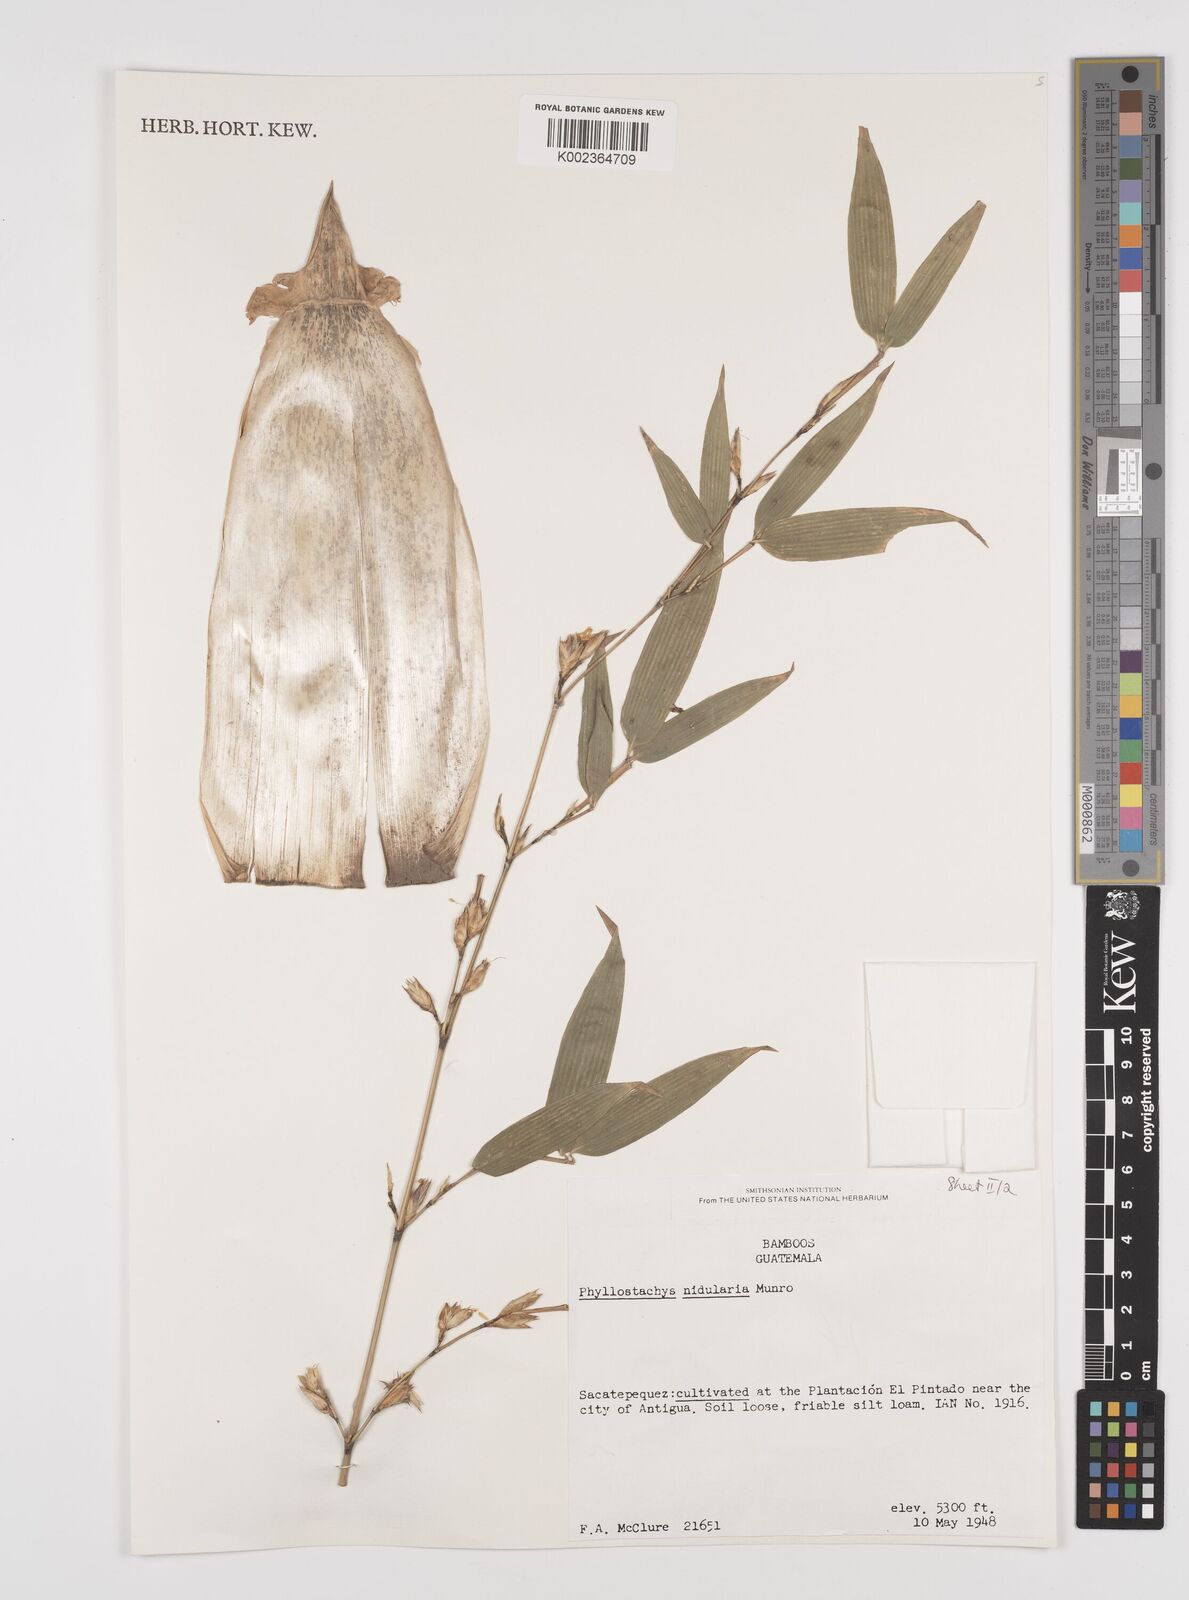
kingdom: Plantae
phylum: Tracheophyta
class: Liliopsida
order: Poales
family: Poaceae
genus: Phyllostachys
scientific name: Phyllostachys nidularia
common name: Broom bamboo
